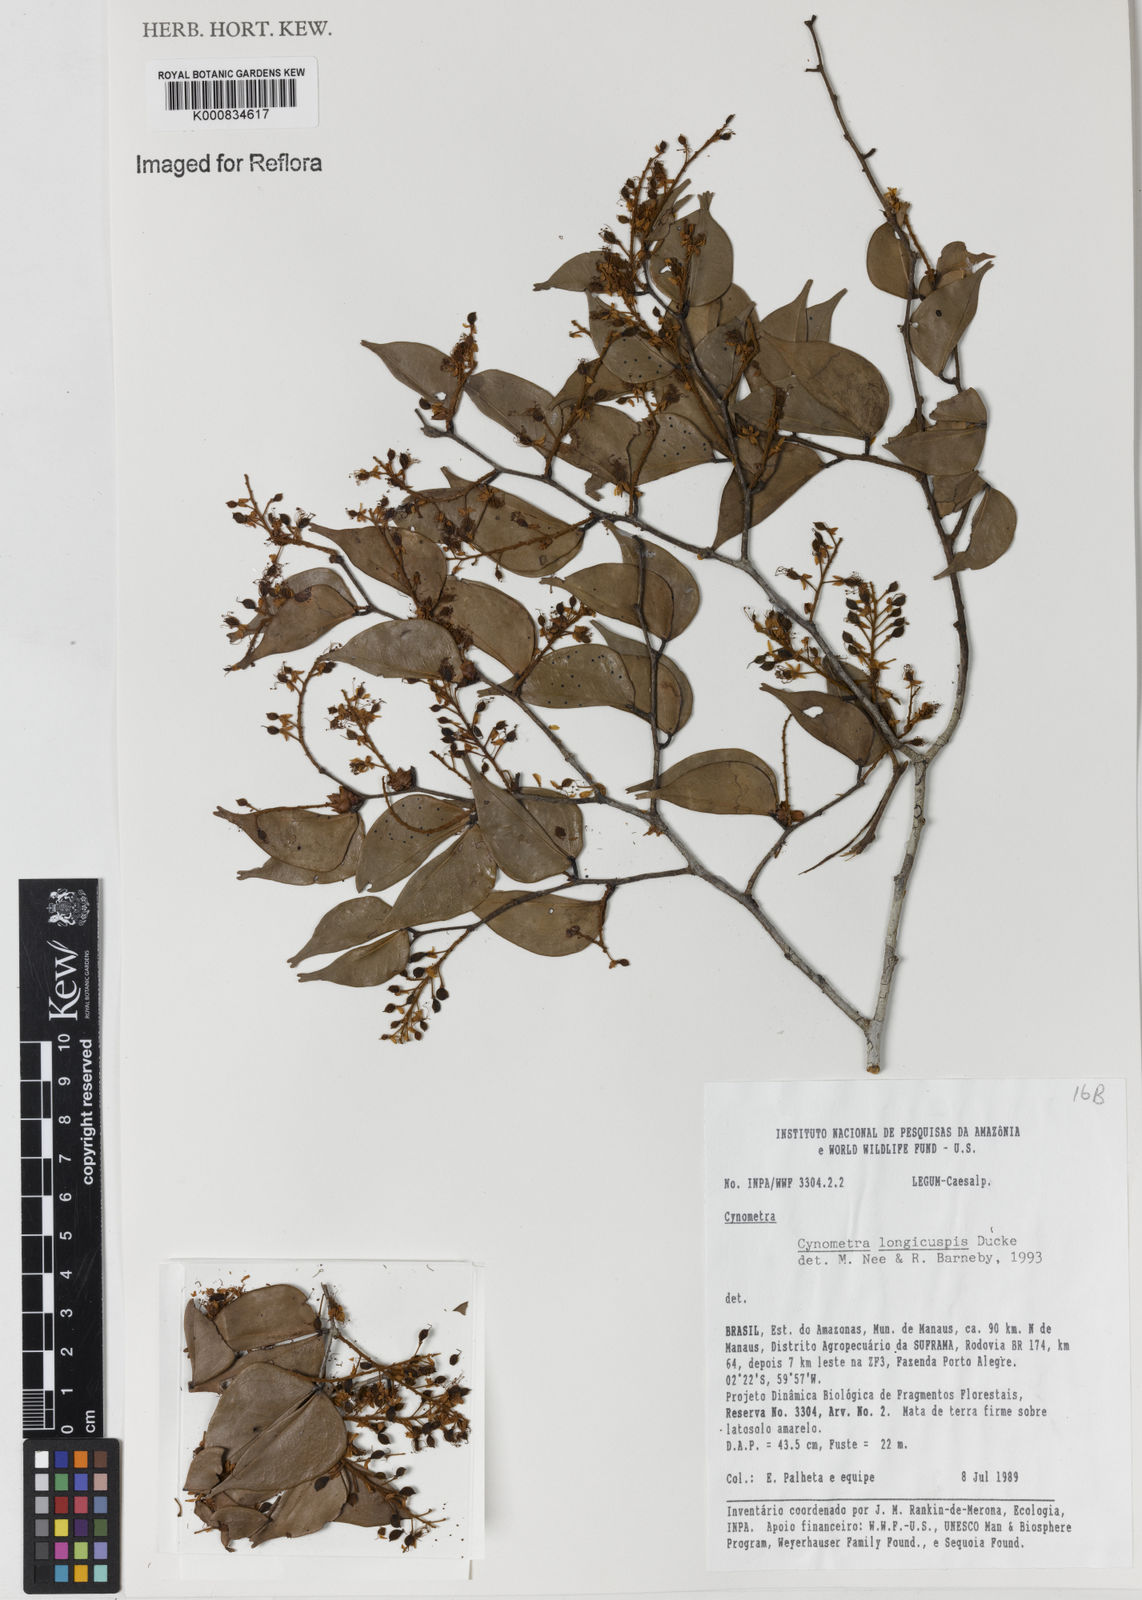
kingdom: Plantae
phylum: Tracheophyta
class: Magnoliopsida
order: Fabales
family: Fabaceae
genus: Cynometra
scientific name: Cynometra longicuspis
